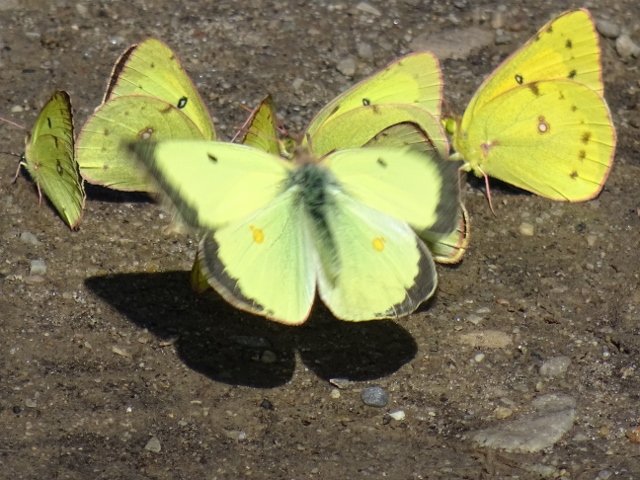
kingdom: Animalia
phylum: Arthropoda
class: Insecta
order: Lepidoptera
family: Pieridae
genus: Colias
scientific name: Colias philodice
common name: Clouded Sulphur
